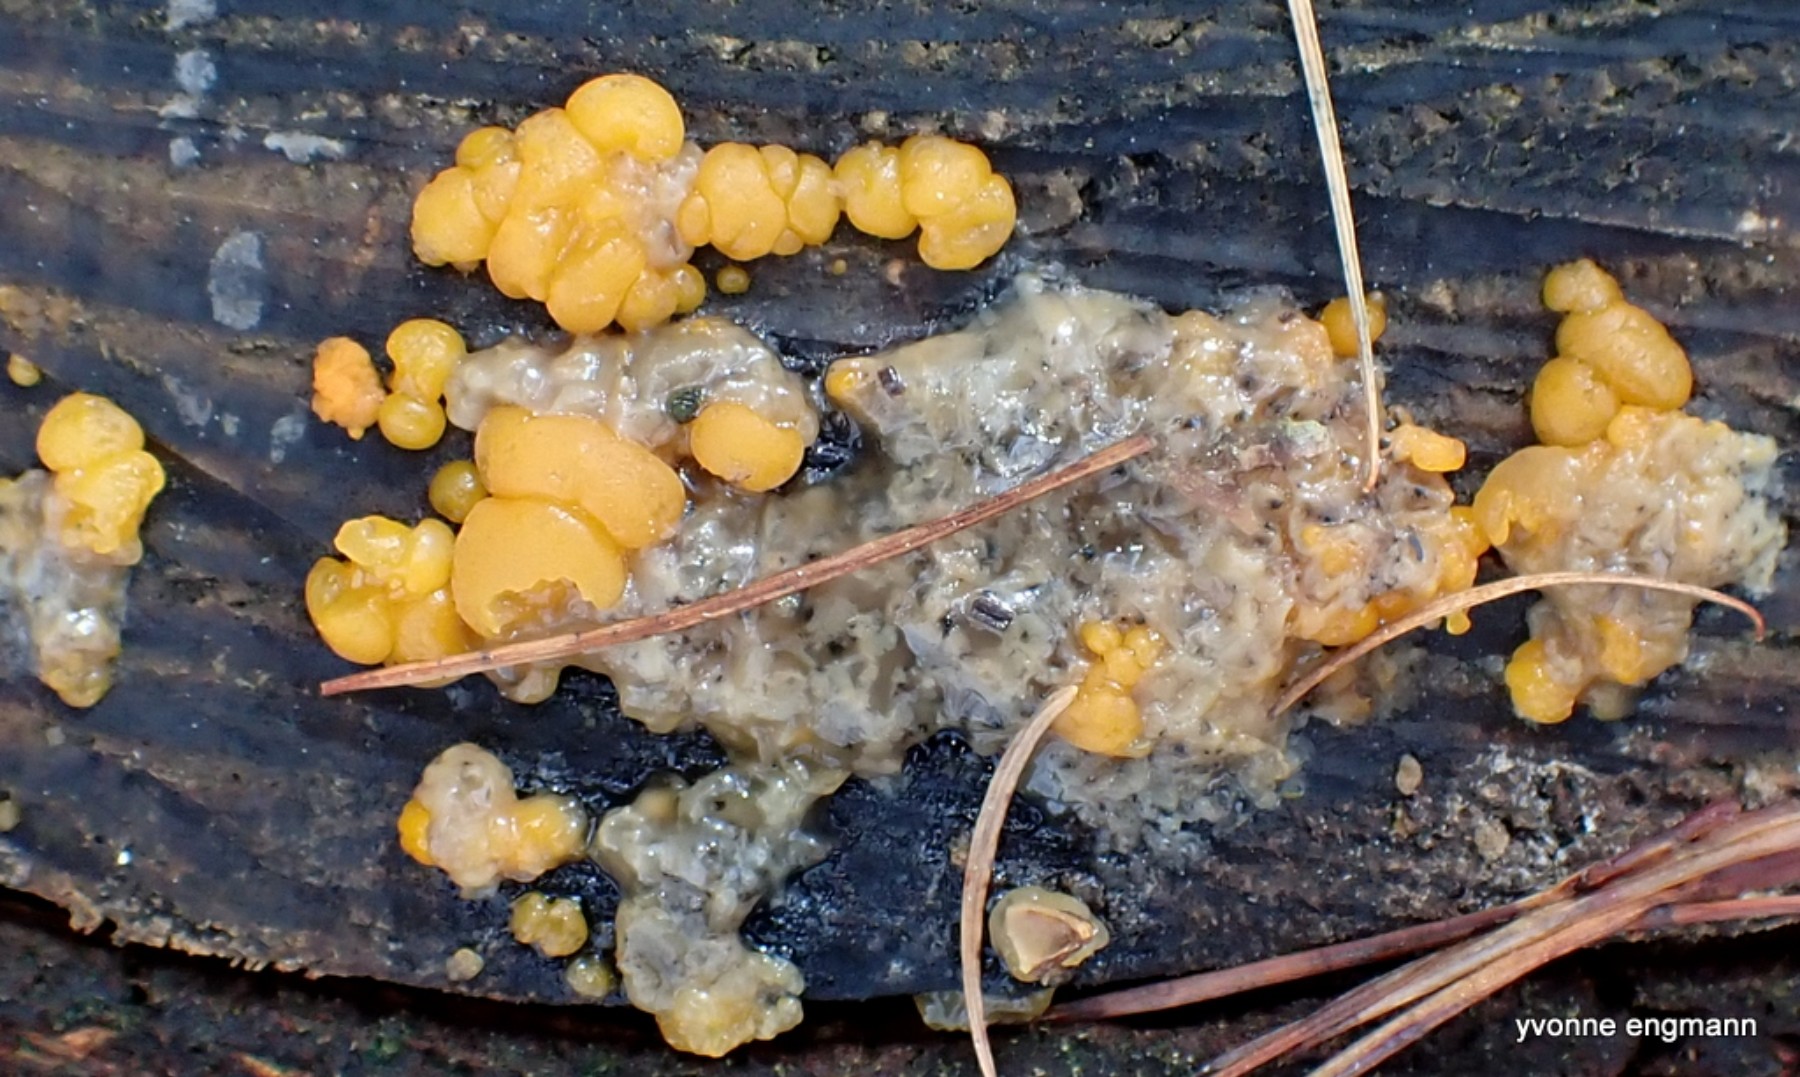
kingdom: Fungi
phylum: Basidiomycota
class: Dacrymycetes
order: Dacrymycetales
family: Dacrymycetaceae
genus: Dacrymyces
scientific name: Dacrymyces stillatus
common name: almindelig tåresvamp
